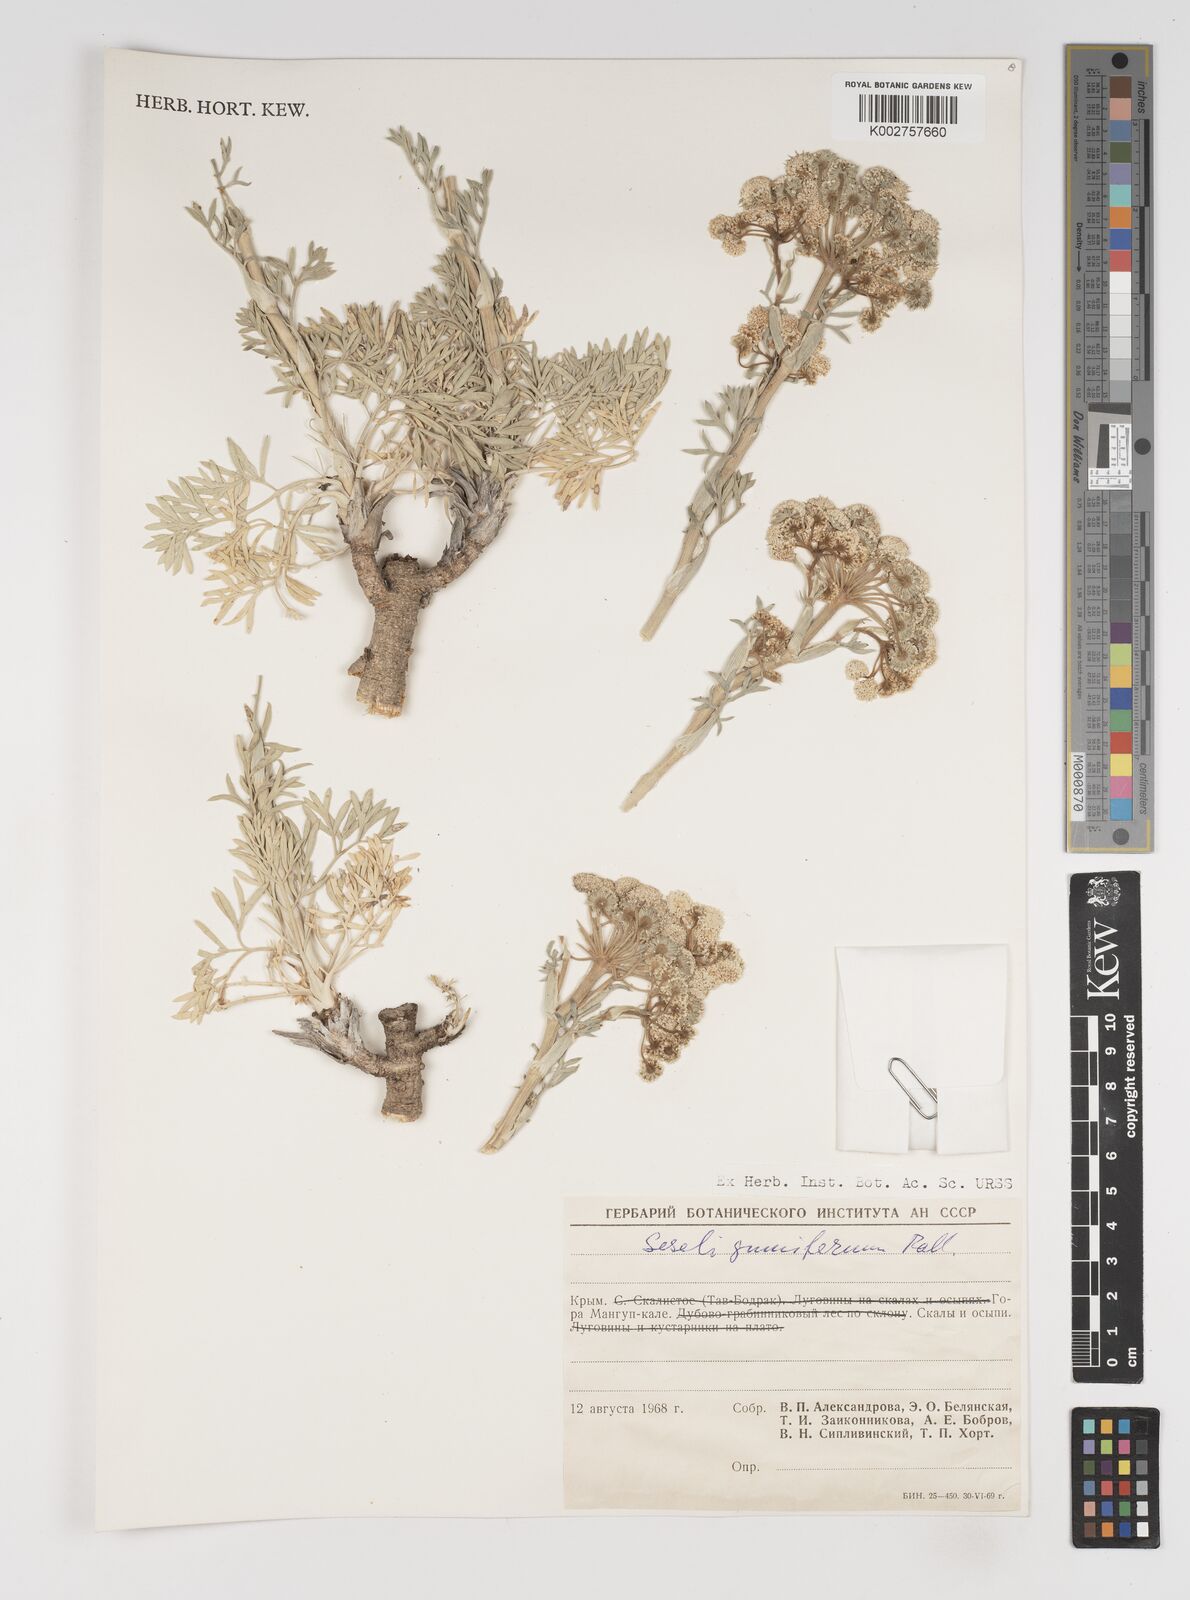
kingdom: Plantae
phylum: Tracheophyta
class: Magnoliopsida
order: Apiales
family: Apiaceae
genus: Seseli
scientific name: Seseli gummiferum
